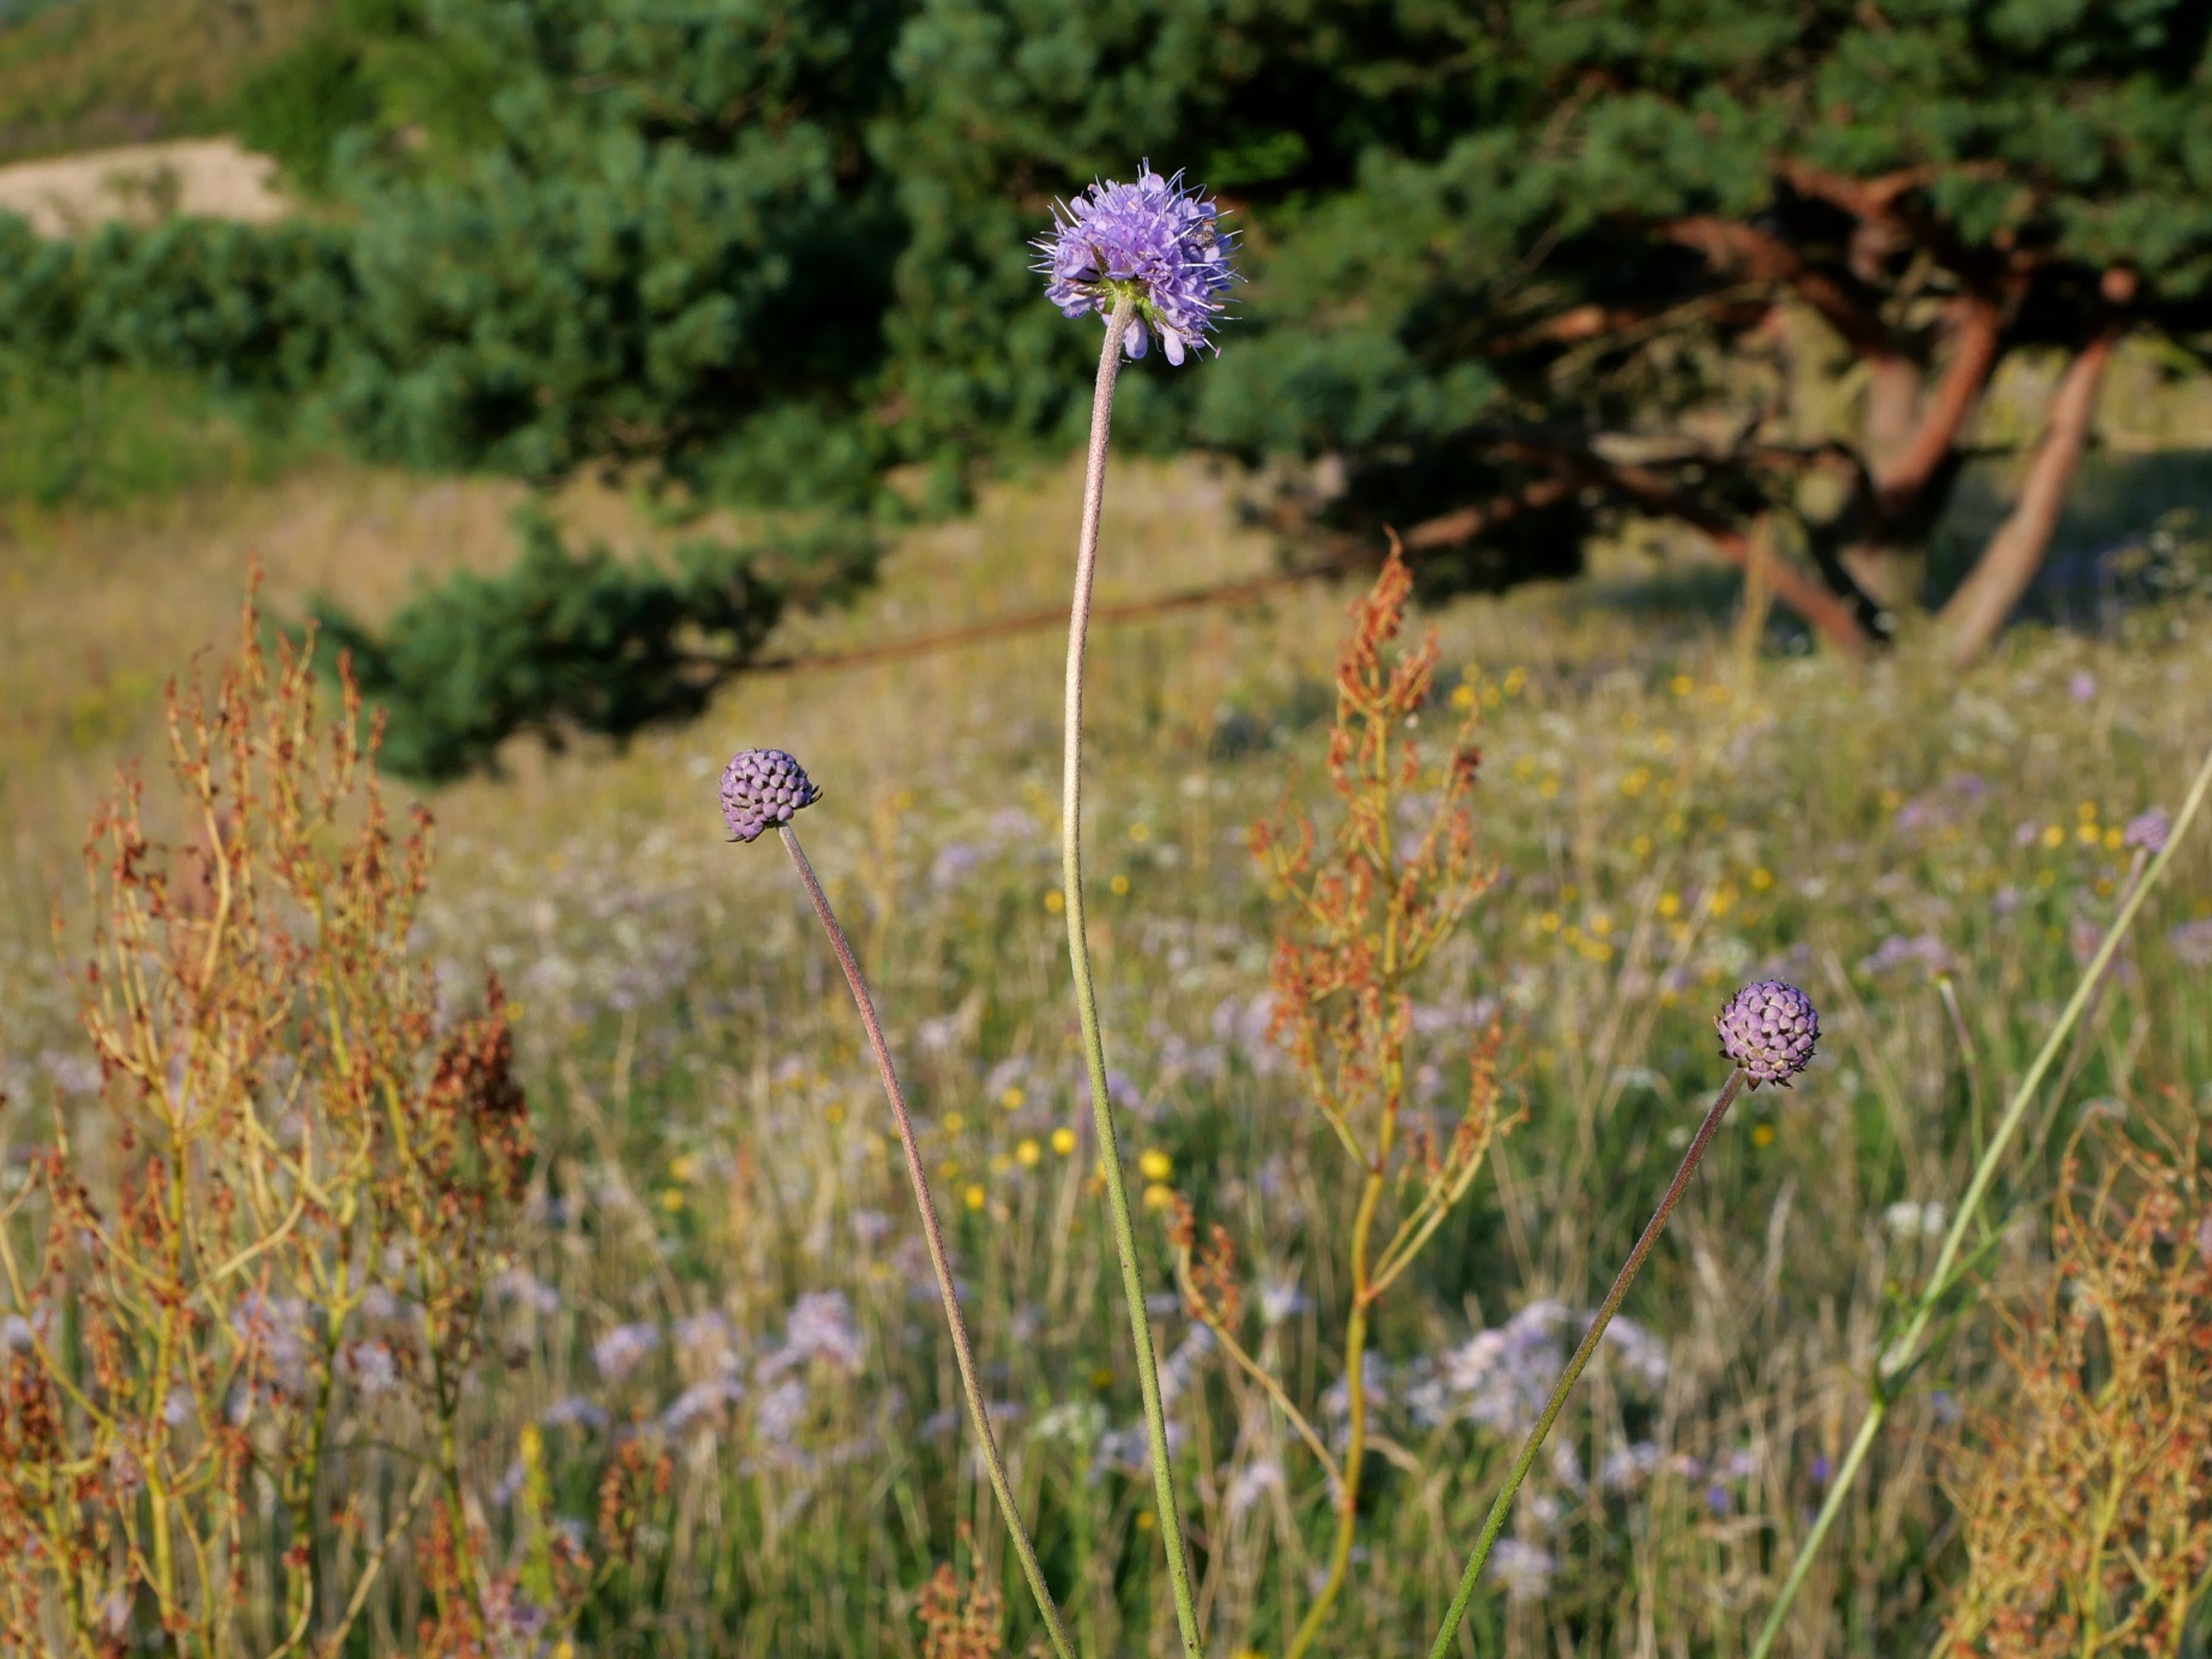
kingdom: Plantae
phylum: Tracheophyta
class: Magnoliopsida
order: Dipsacales
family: Caprifoliaceae
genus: Succisa
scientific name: Succisa pratensis
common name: Djævelsbid
